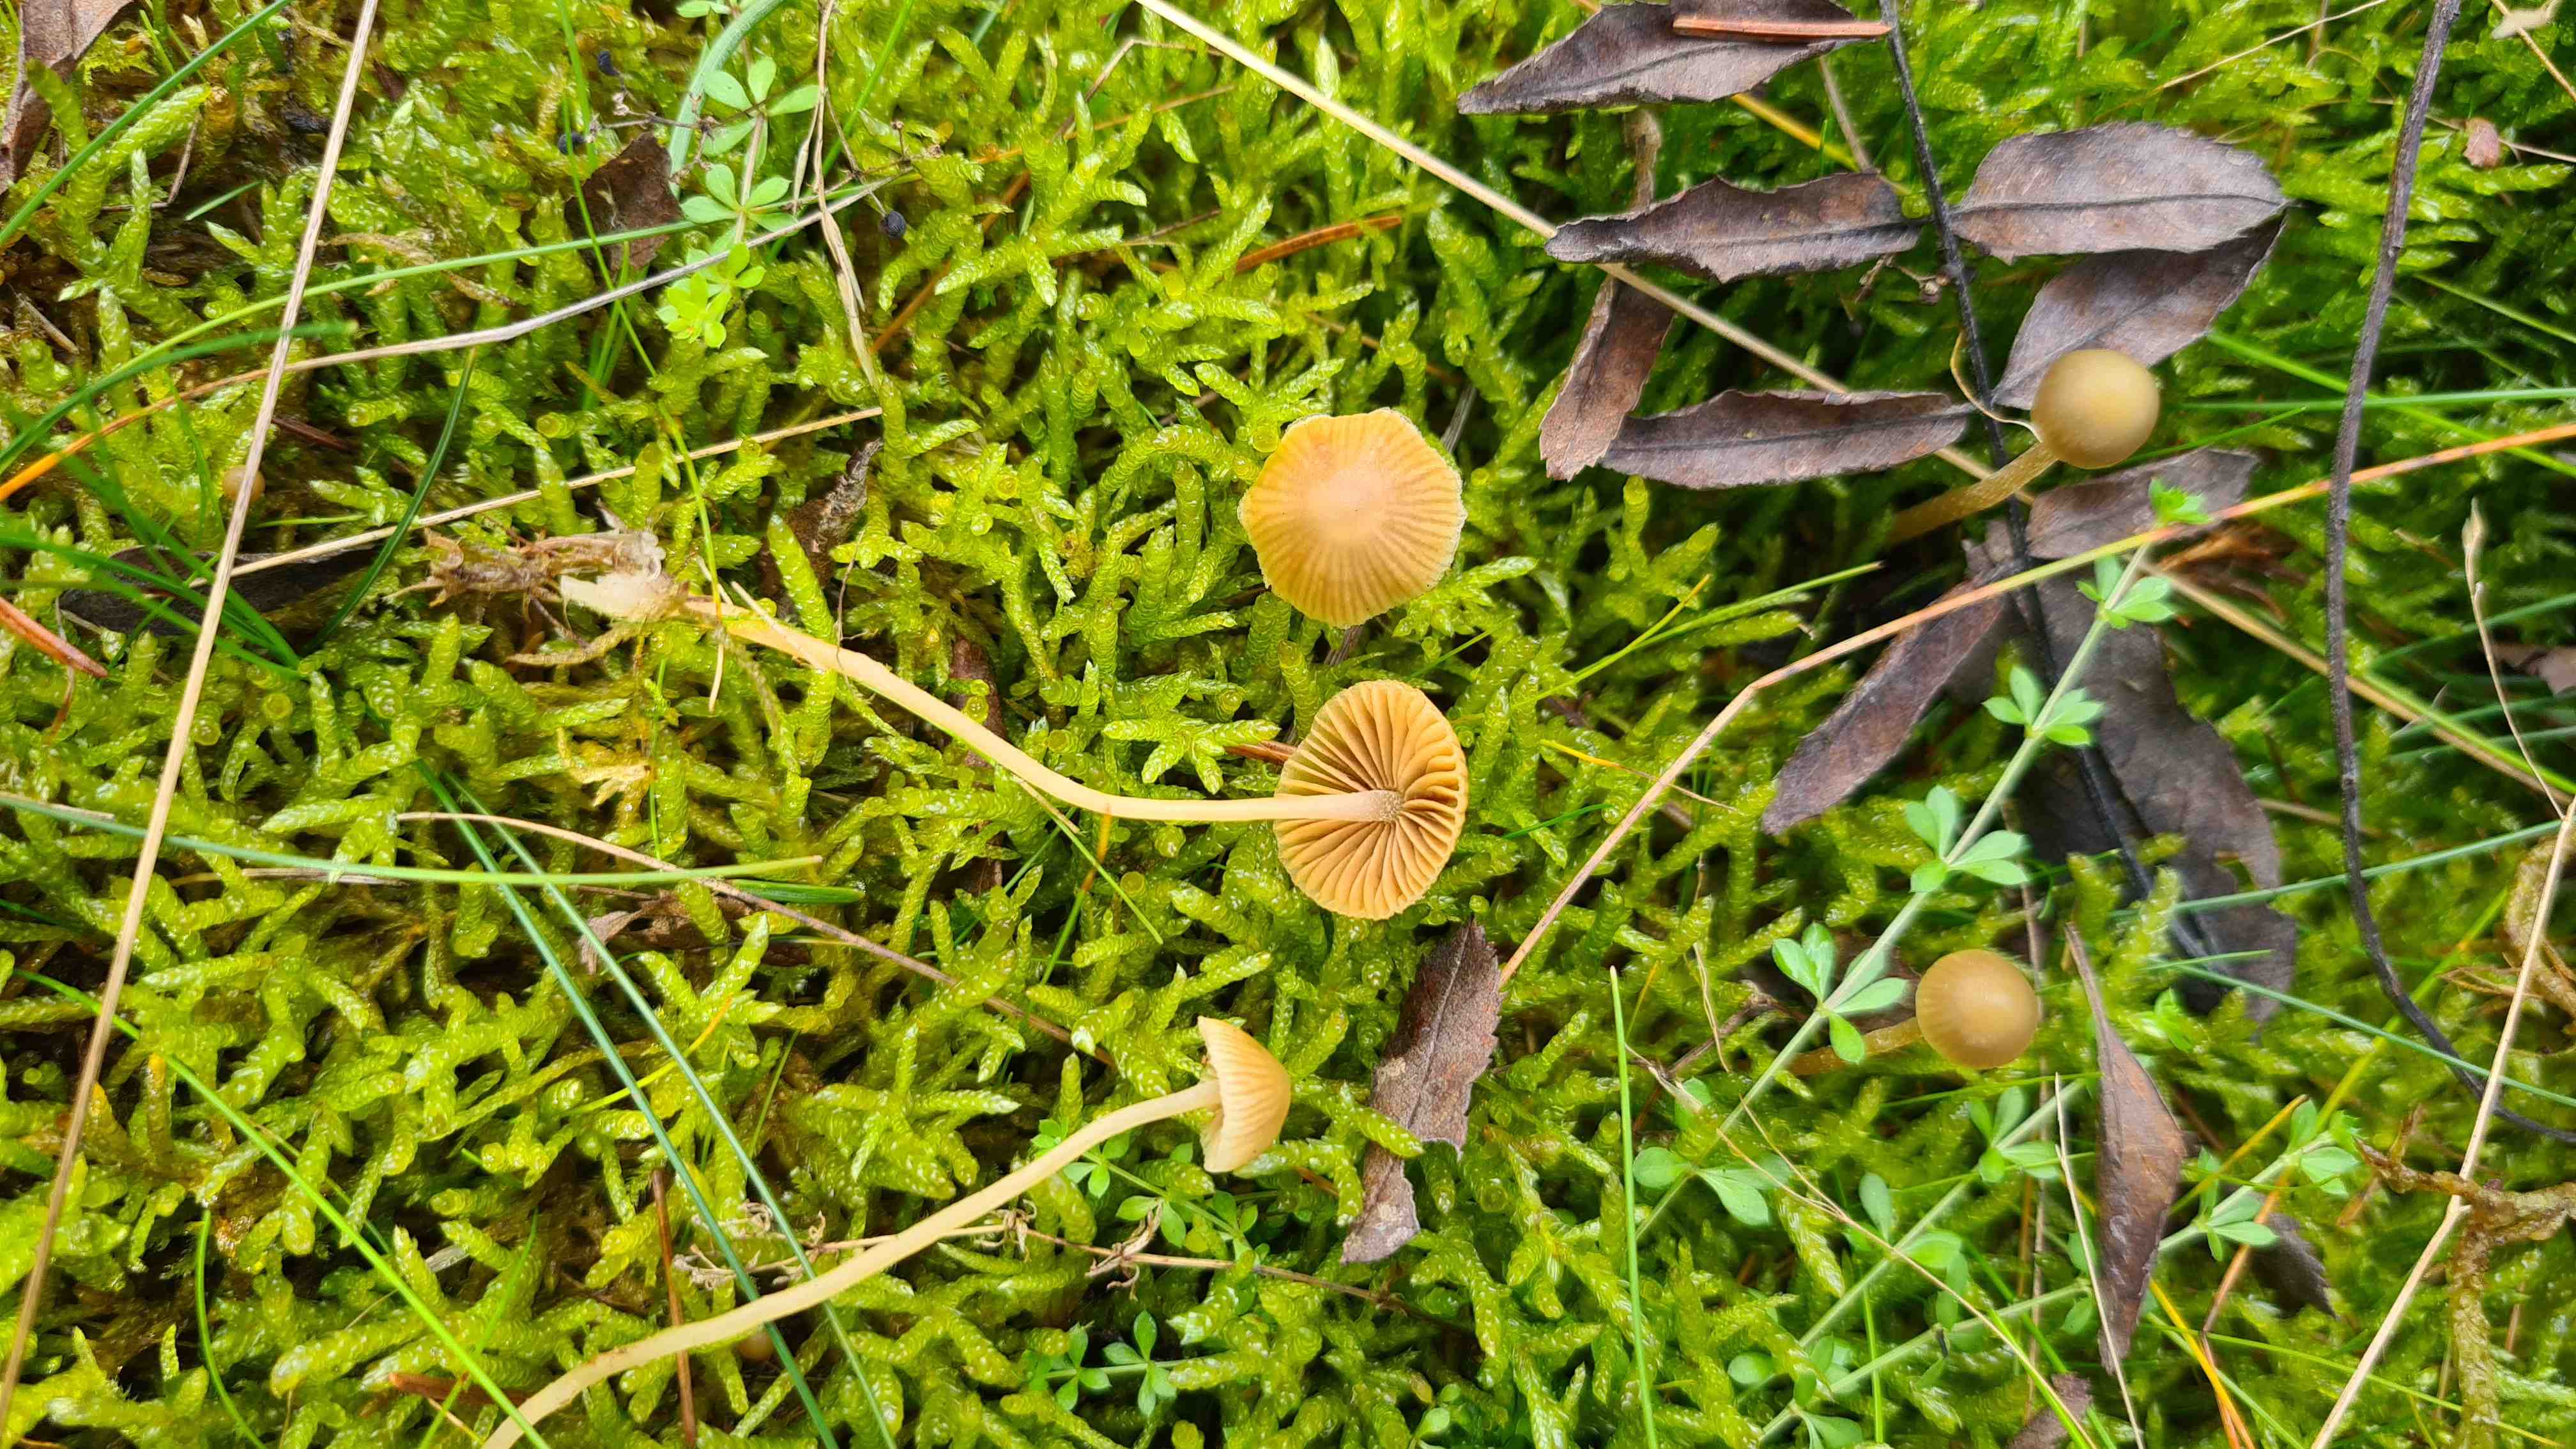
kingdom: Fungi
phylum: Basidiomycota
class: Agaricomycetes
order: Agaricales
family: Hymenogastraceae
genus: Galerina
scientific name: Galerina
